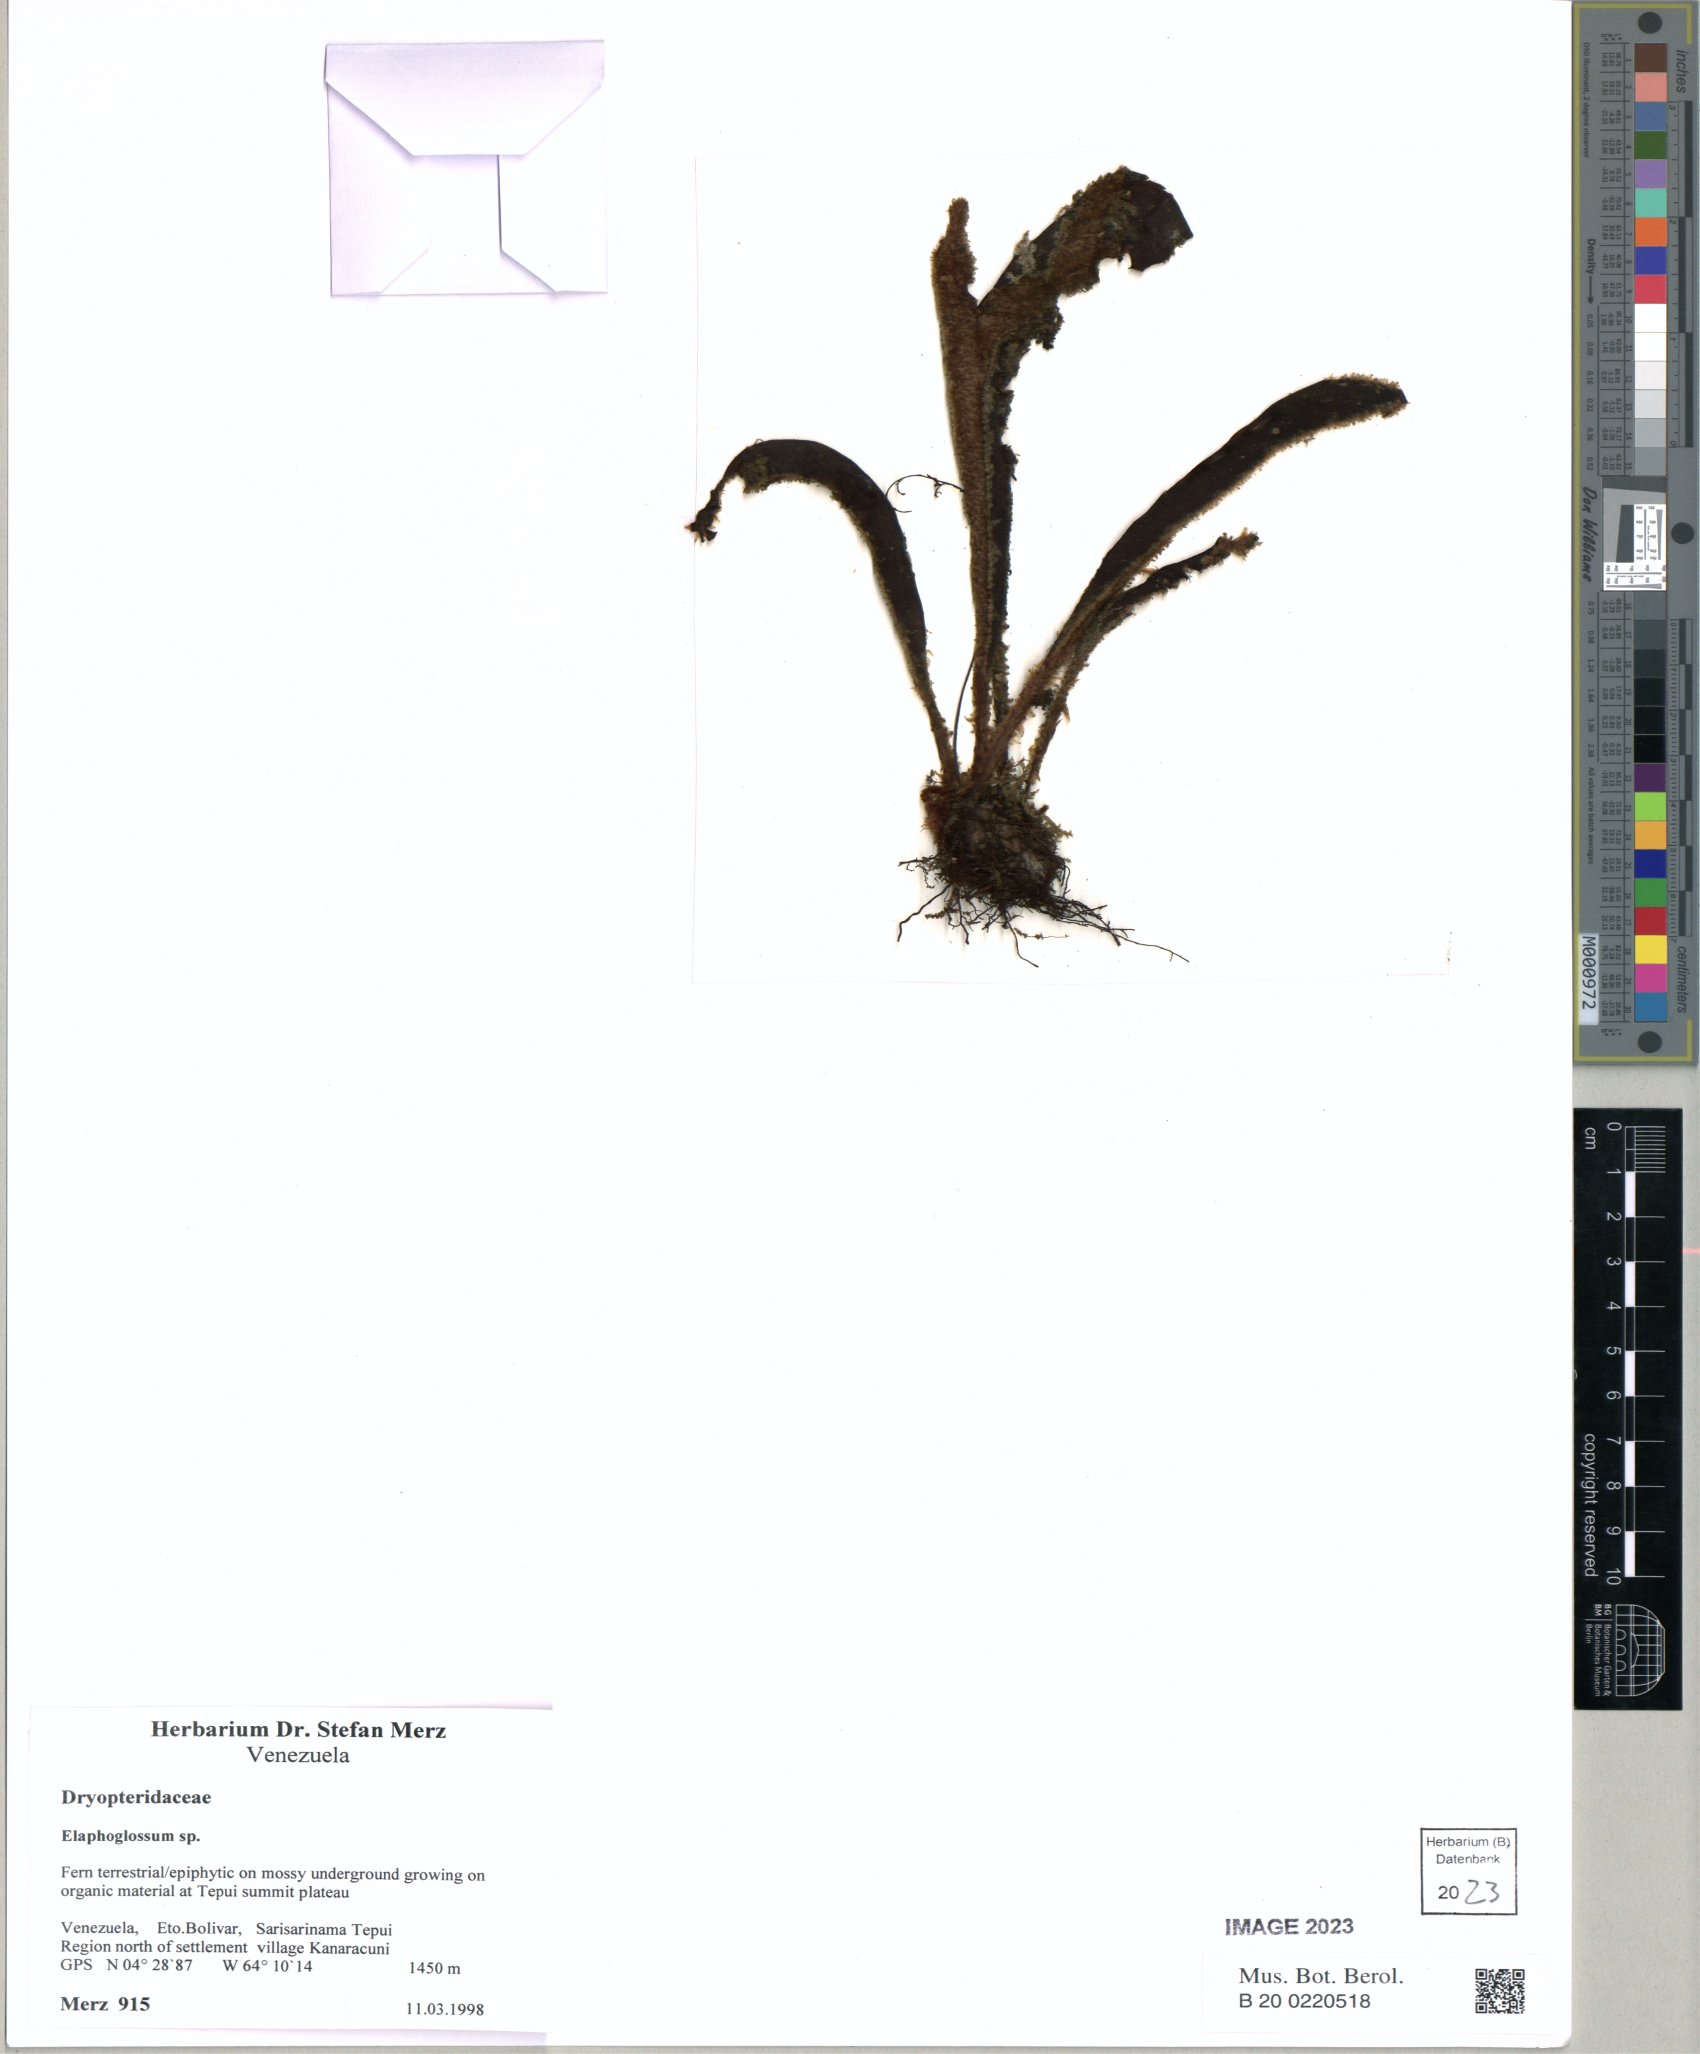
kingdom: Plantae
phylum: Tracheophyta
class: Polypodiopsida
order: Polypodiales
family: Dryopteridaceae
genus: Elaphoglossum
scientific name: Elaphoglossum
